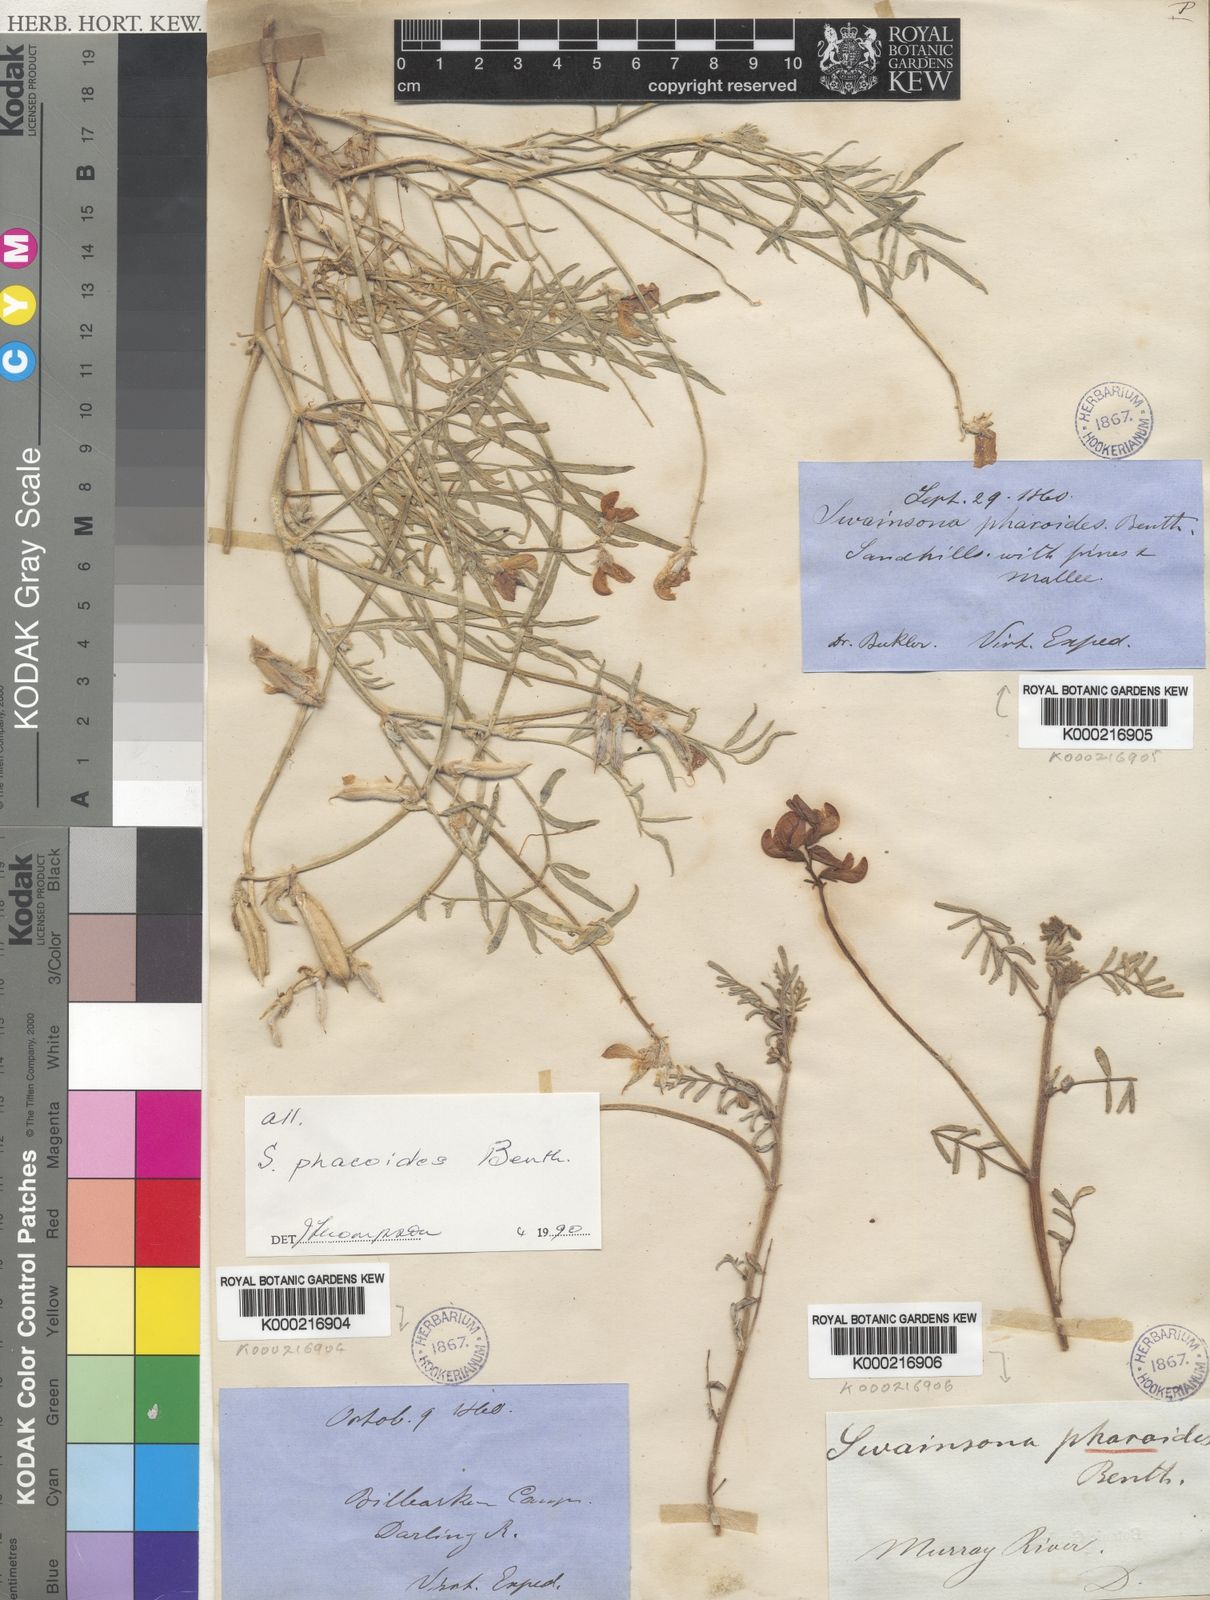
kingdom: Plantae
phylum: Tracheophyta
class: Magnoliopsida
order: Fabales
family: Fabaceae
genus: Swainsona
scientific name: Swainsona phacoides
